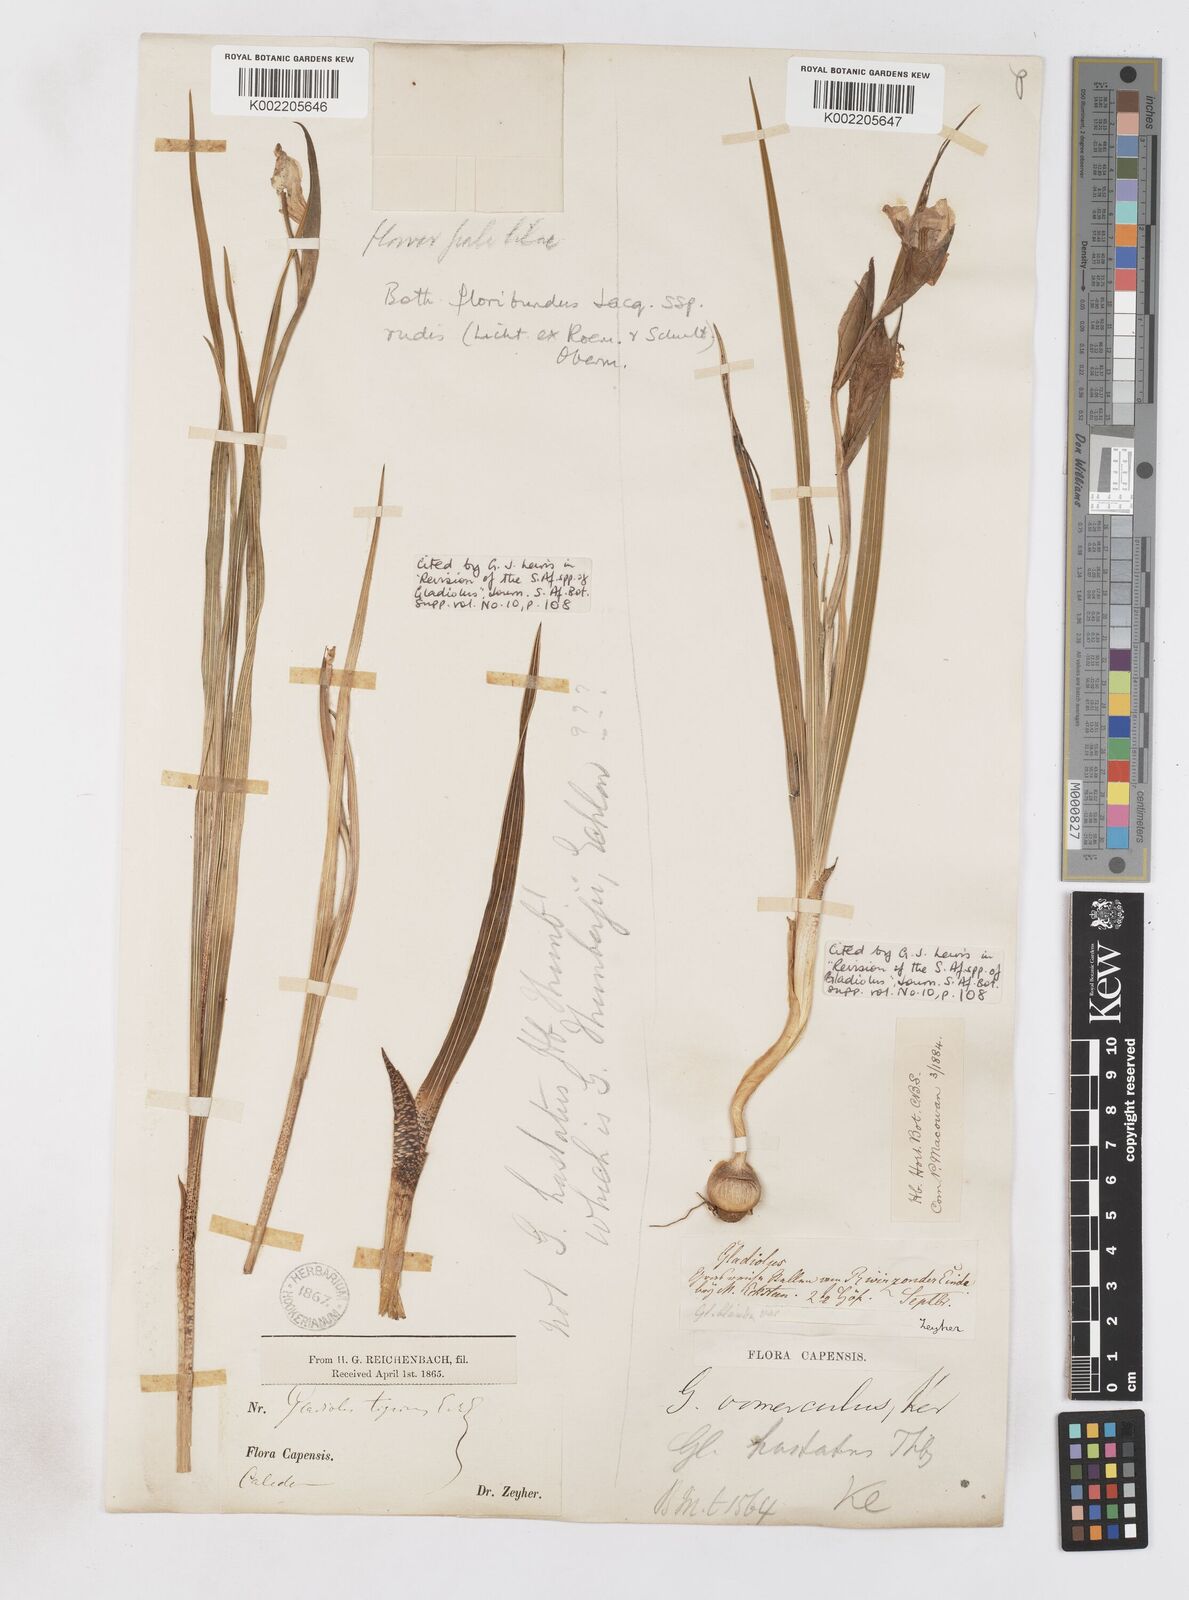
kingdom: Plantae
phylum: Tracheophyta
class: Liliopsida
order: Asparagales
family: Iridaceae
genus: Gladiolus
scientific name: Gladiolus rudis
